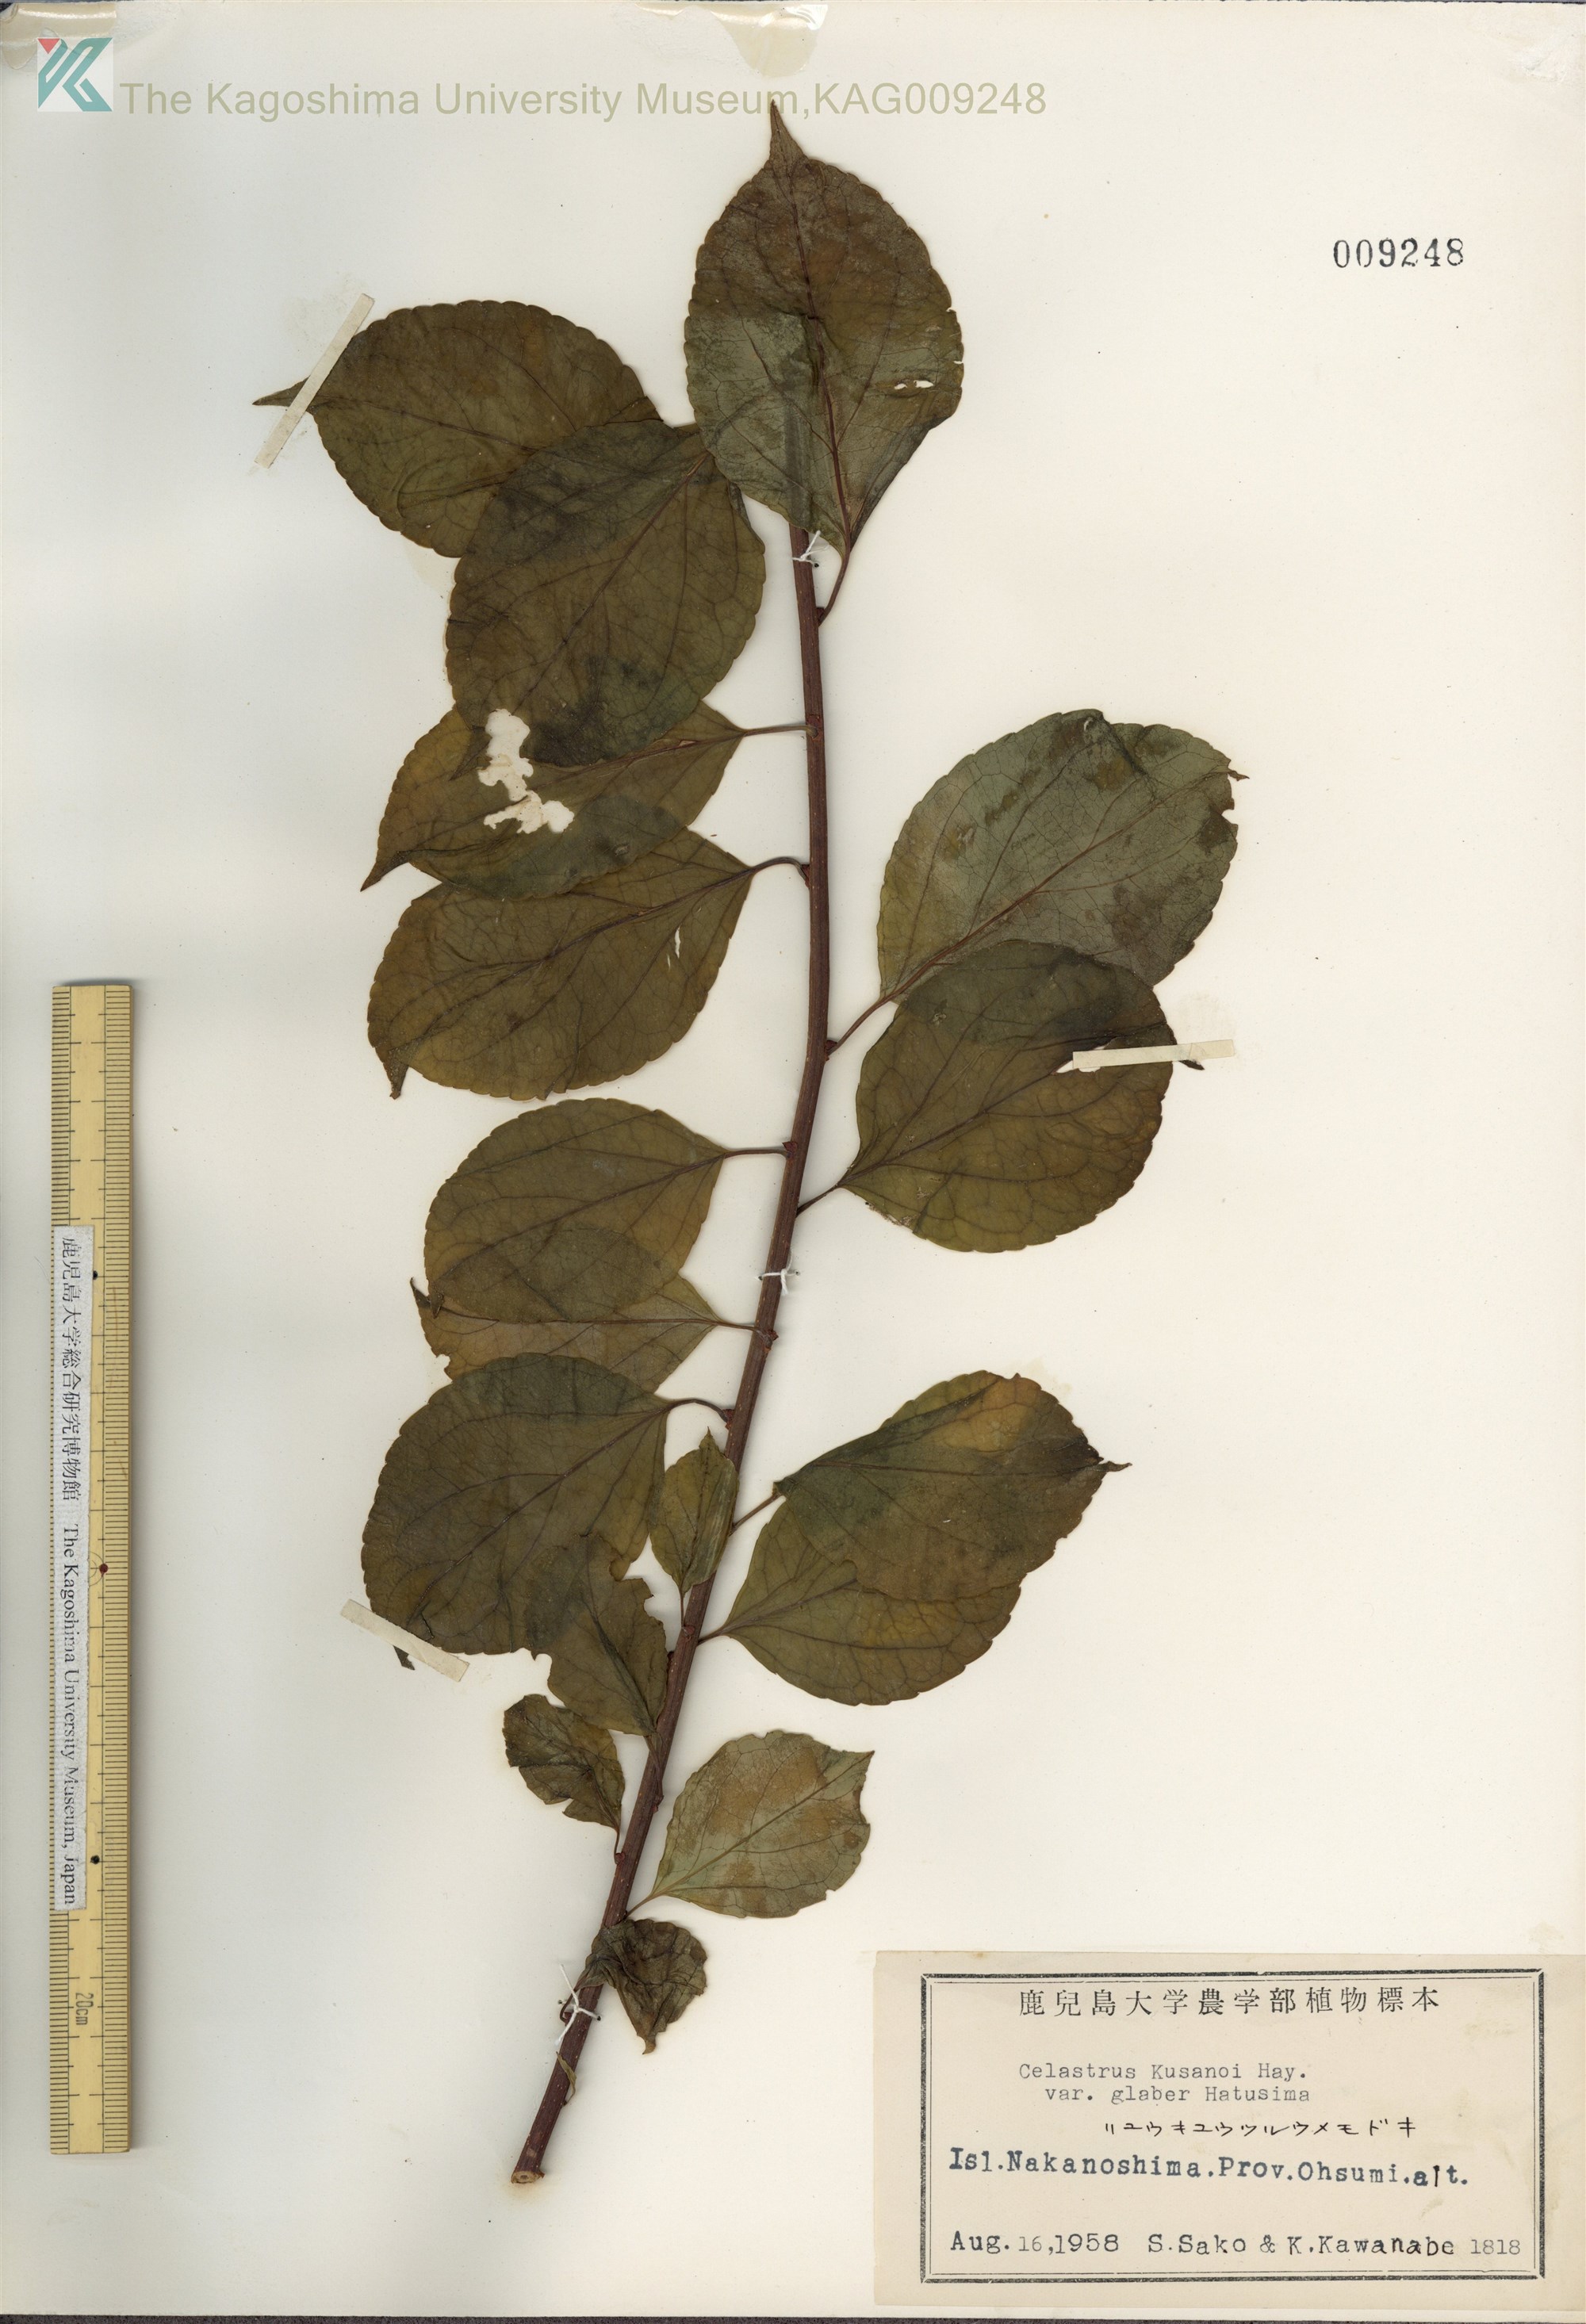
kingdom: Plantae
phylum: Tracheophyta
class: Magnoliopsida
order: Celastrales
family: Celastraceae
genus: Celastrus
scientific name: Celastrus hypoleucus
